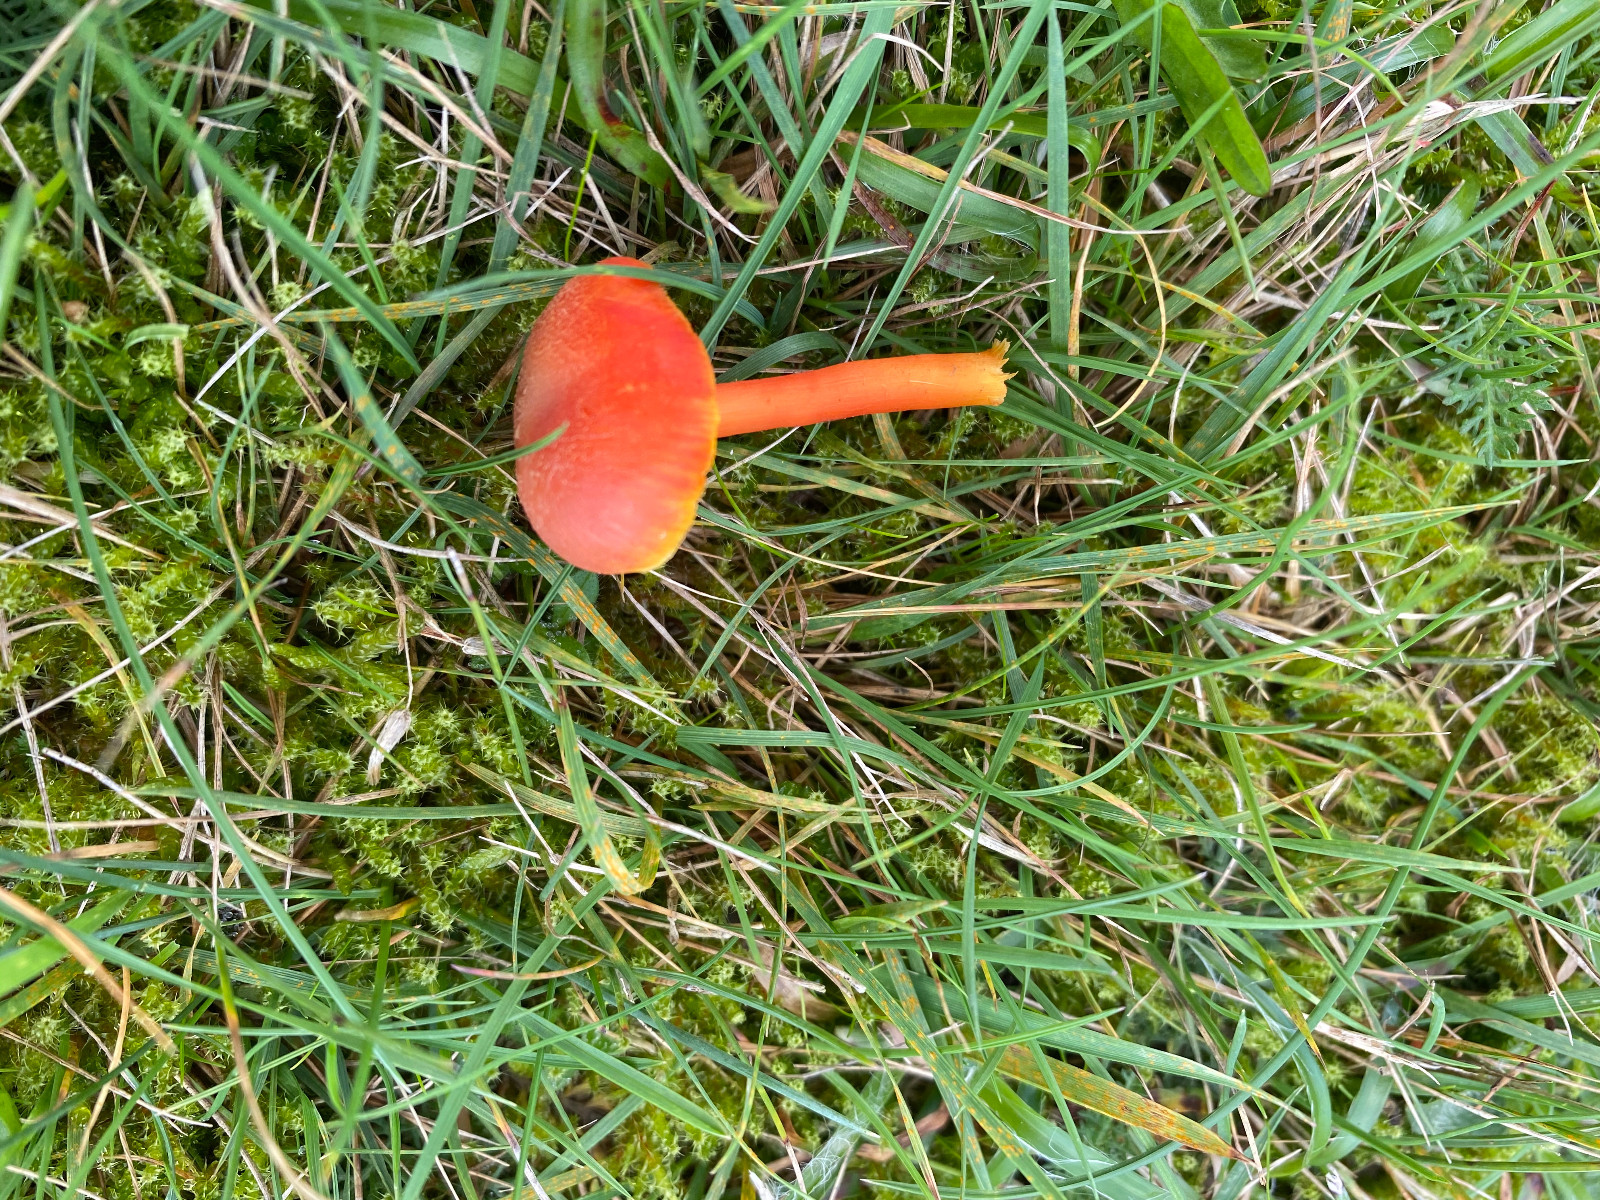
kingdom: Fungi
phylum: Basidiomycota
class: Agaricomycetes
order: Agaricales
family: Hygrophoraceae
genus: Hygrocybe
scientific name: Hygrocybe miniata
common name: mønje-vokshat
